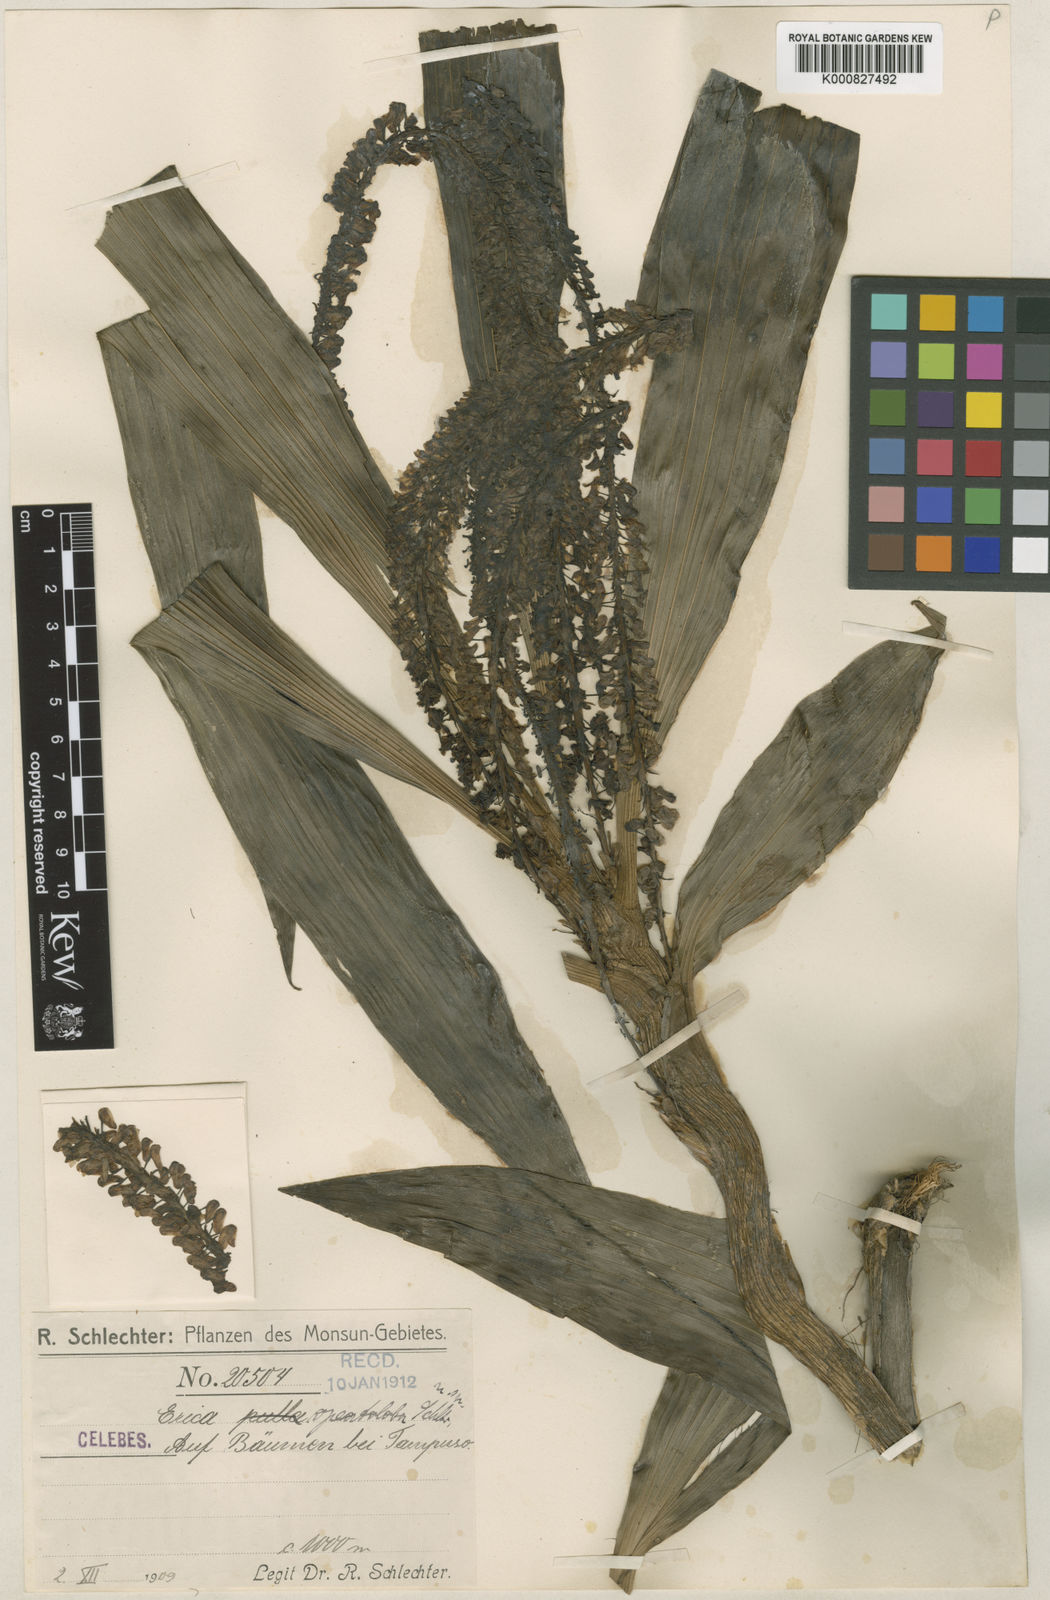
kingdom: Plantae
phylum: Tracheophyta
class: Liliopsida
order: Asparagales
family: Orchidaceae
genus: Pinalia
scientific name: Pinalia opeatoloba
